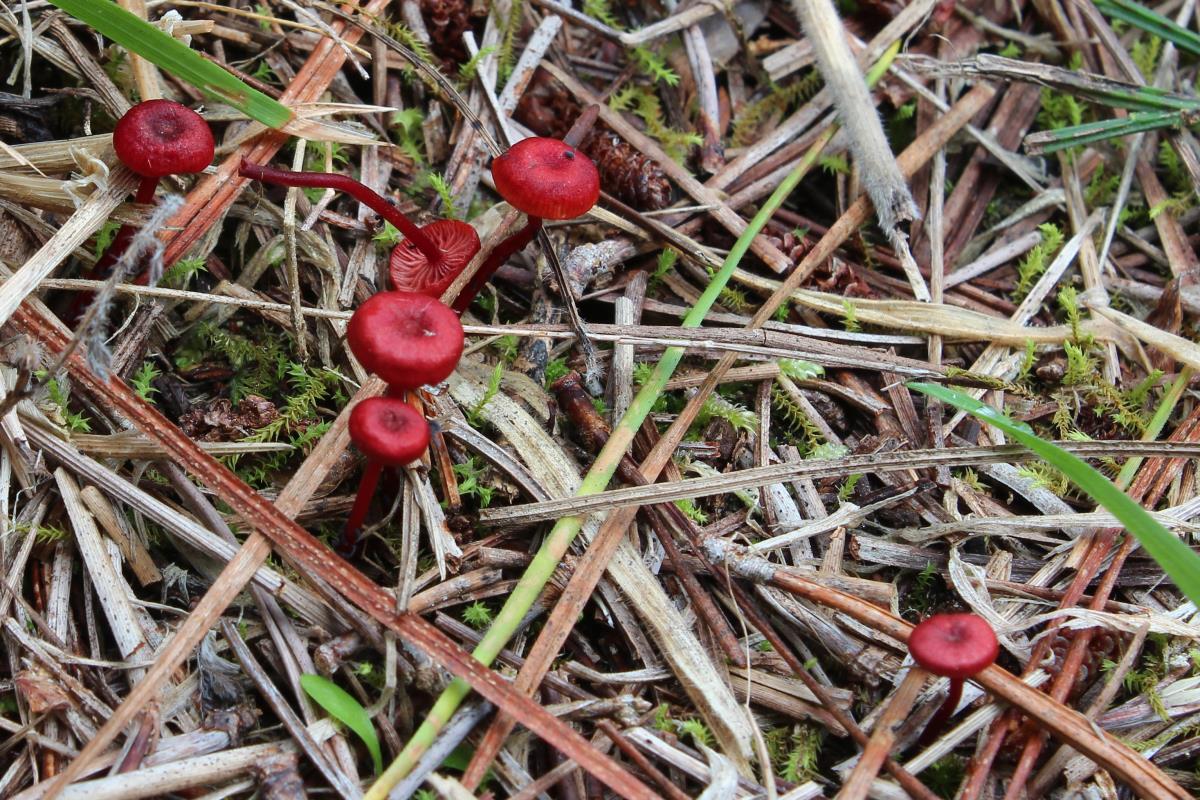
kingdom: Fungi
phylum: Basidiomycota
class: Agaricomycetes
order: Agaricales
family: Mycenaceae
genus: Cruentomycena
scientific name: Cruentomycena viscidocruenta
